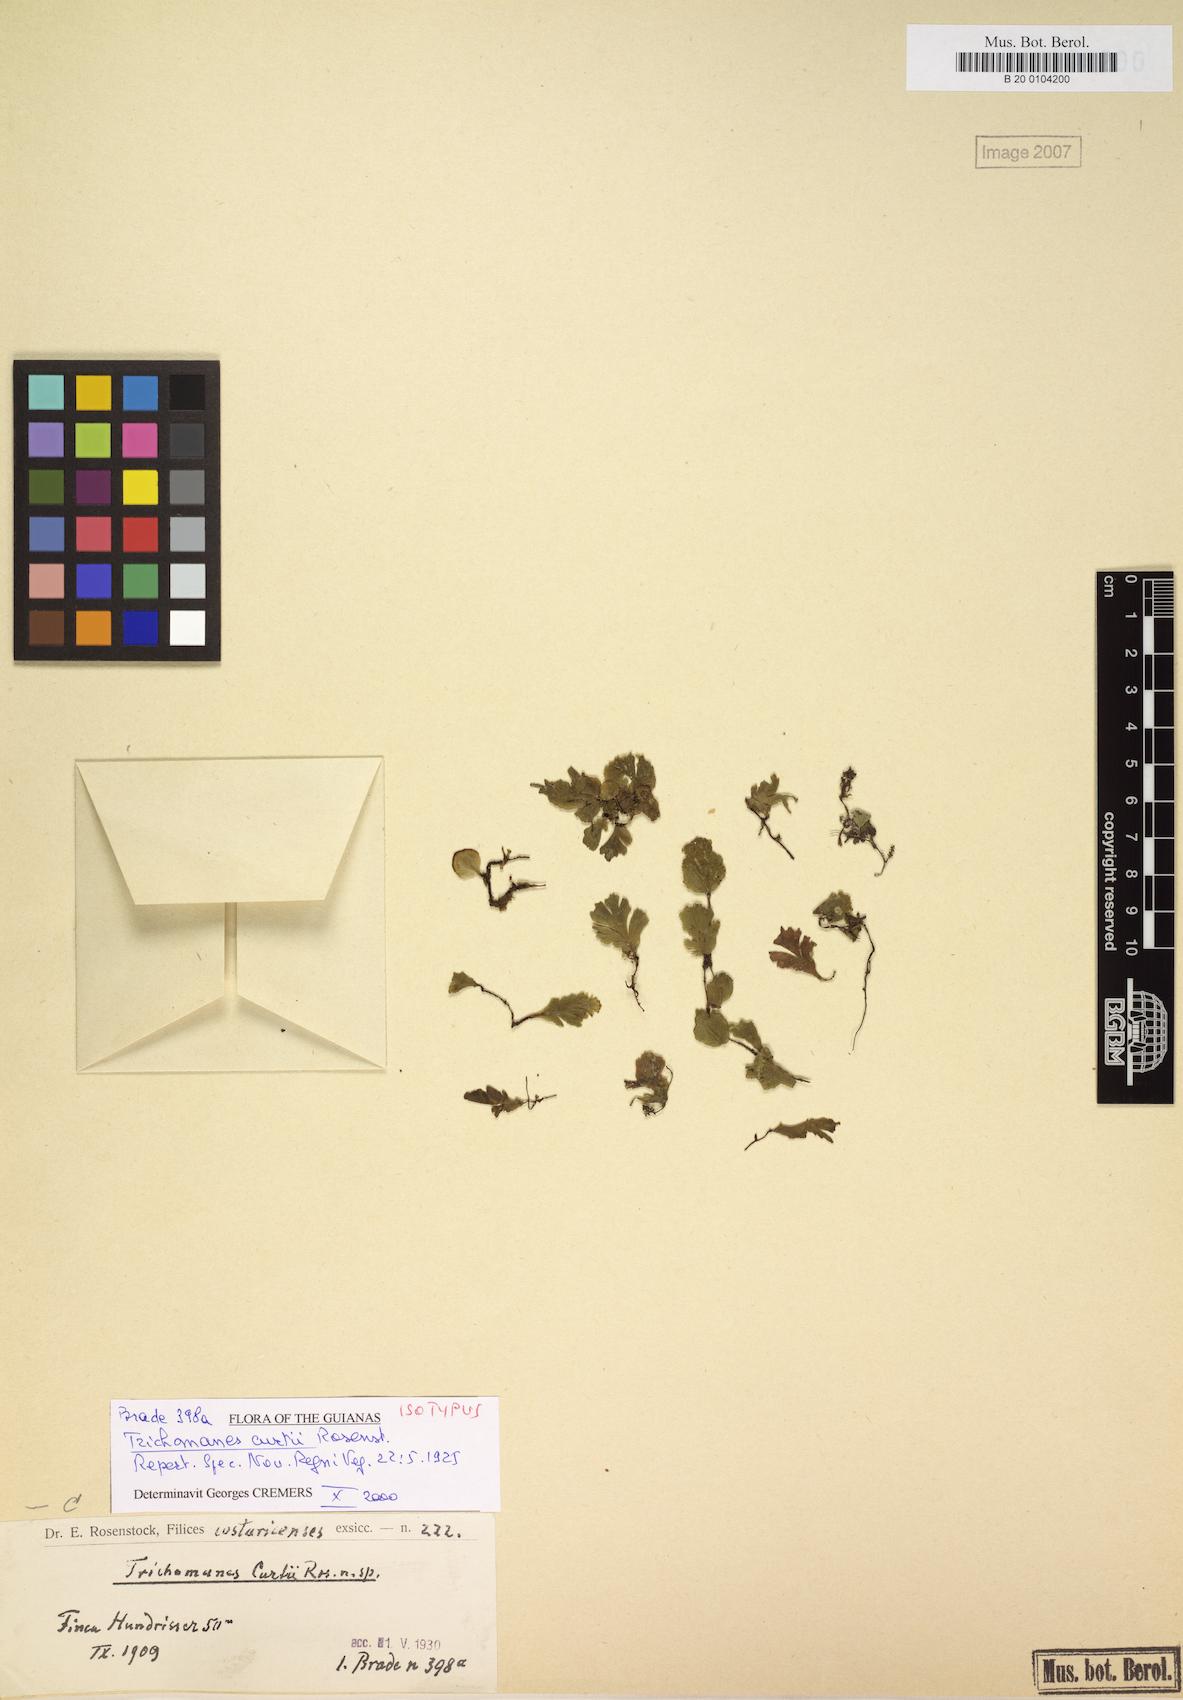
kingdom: Plantae
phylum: Tracheophyta
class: Polypodiopsida
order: Hymenophyllales
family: Hymenophyllaceae
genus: Didymoglossum
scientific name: Didymoglossum curtii
